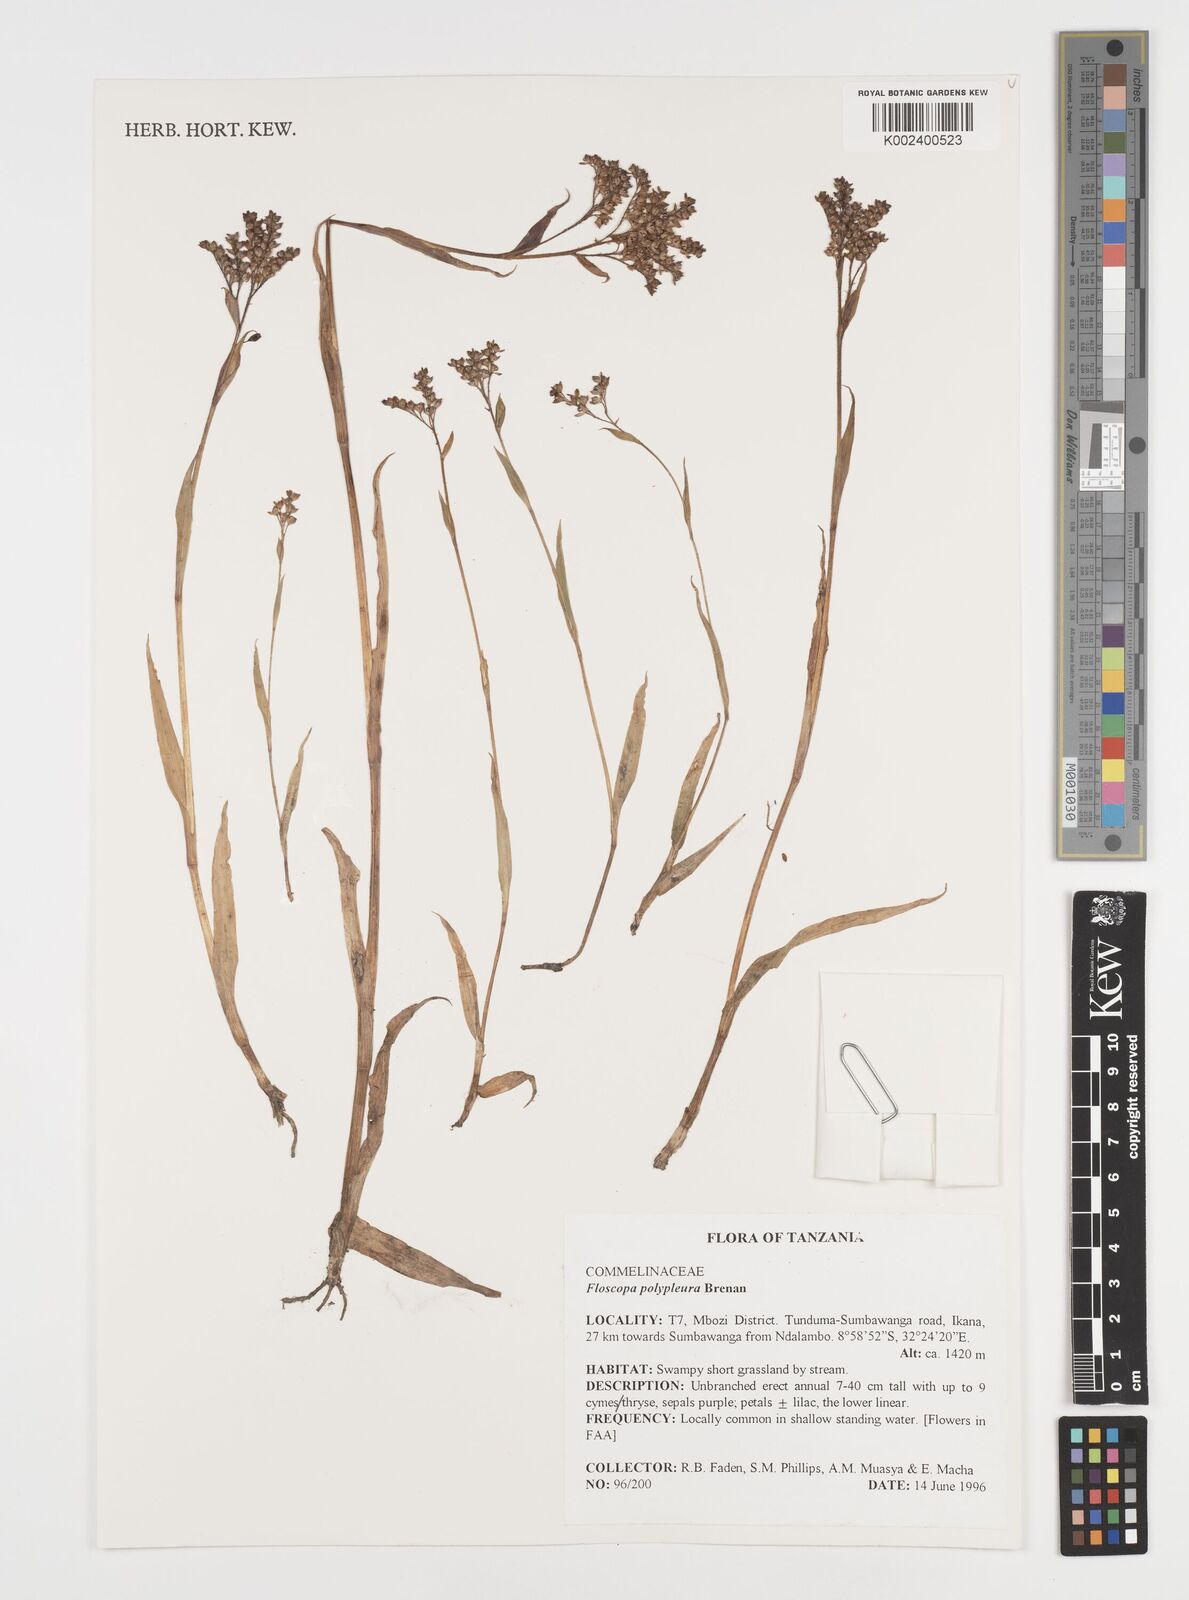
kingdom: Plantae
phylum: Tracheophyta
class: Liliopsida
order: Commelinales
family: Commelinaceae
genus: Floscopa
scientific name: Floscopa polypleura
